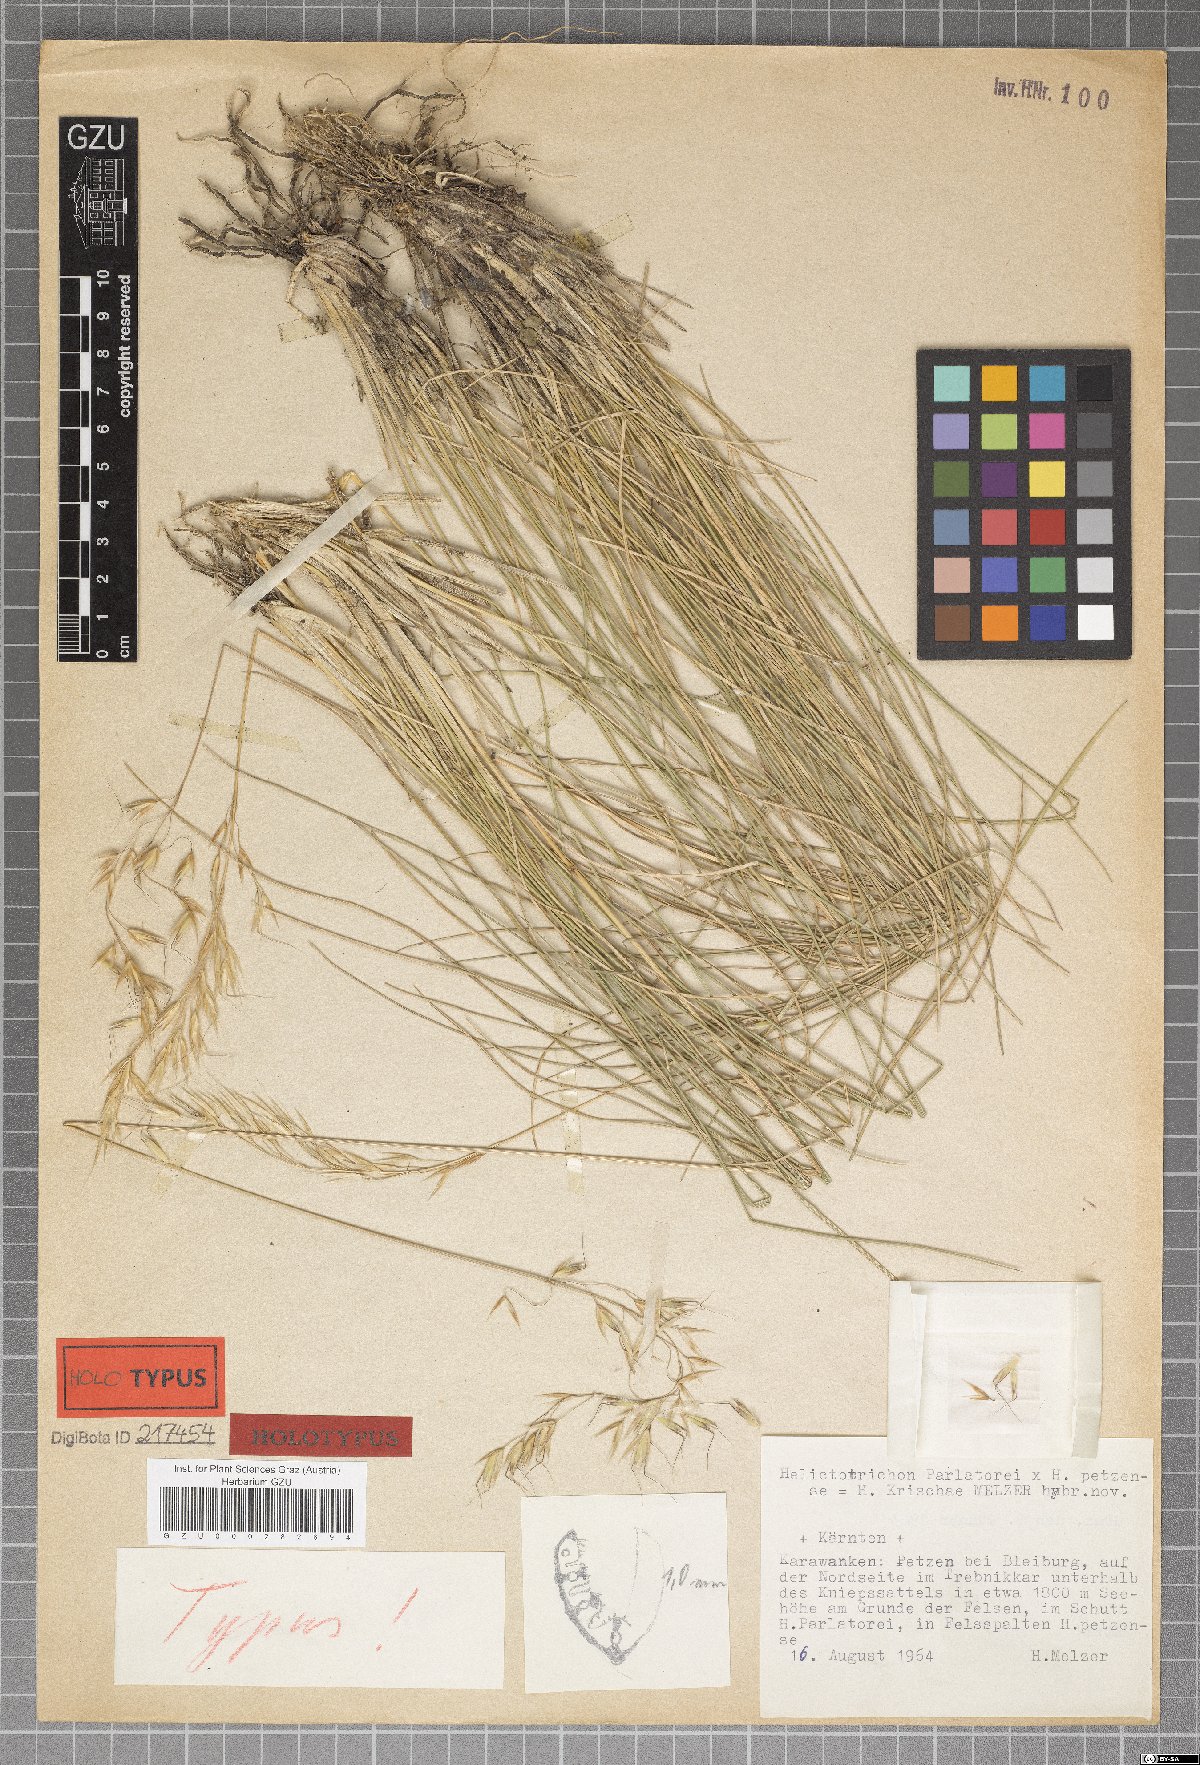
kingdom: Plantae
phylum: Tracheophyta
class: Liliopsida
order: Poales
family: Poaceae
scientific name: Poaceae
